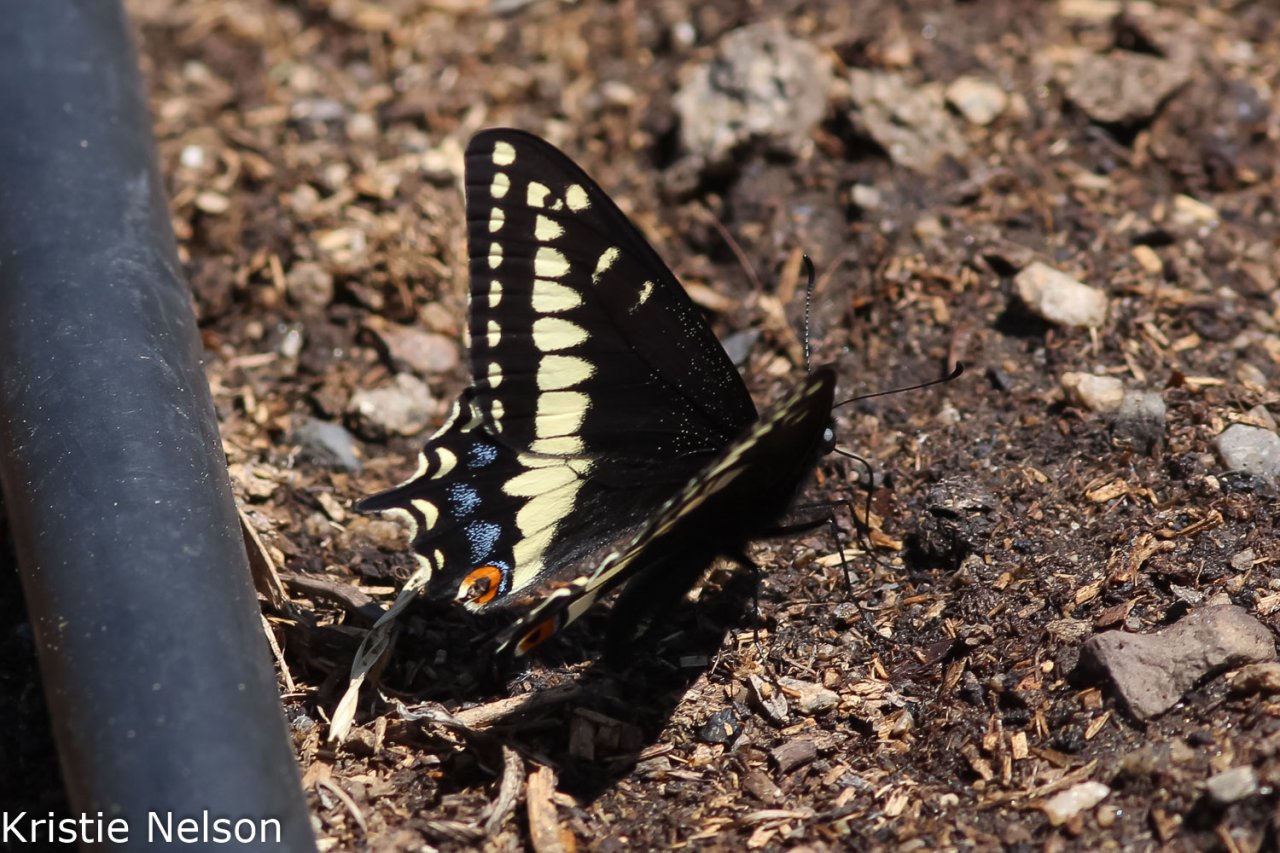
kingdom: Animalia
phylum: Arthropoda
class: Insecta
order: Lepidoptera
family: Papilionidae
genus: Papilio
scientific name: Papilio indra
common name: Indra Swallowtail
